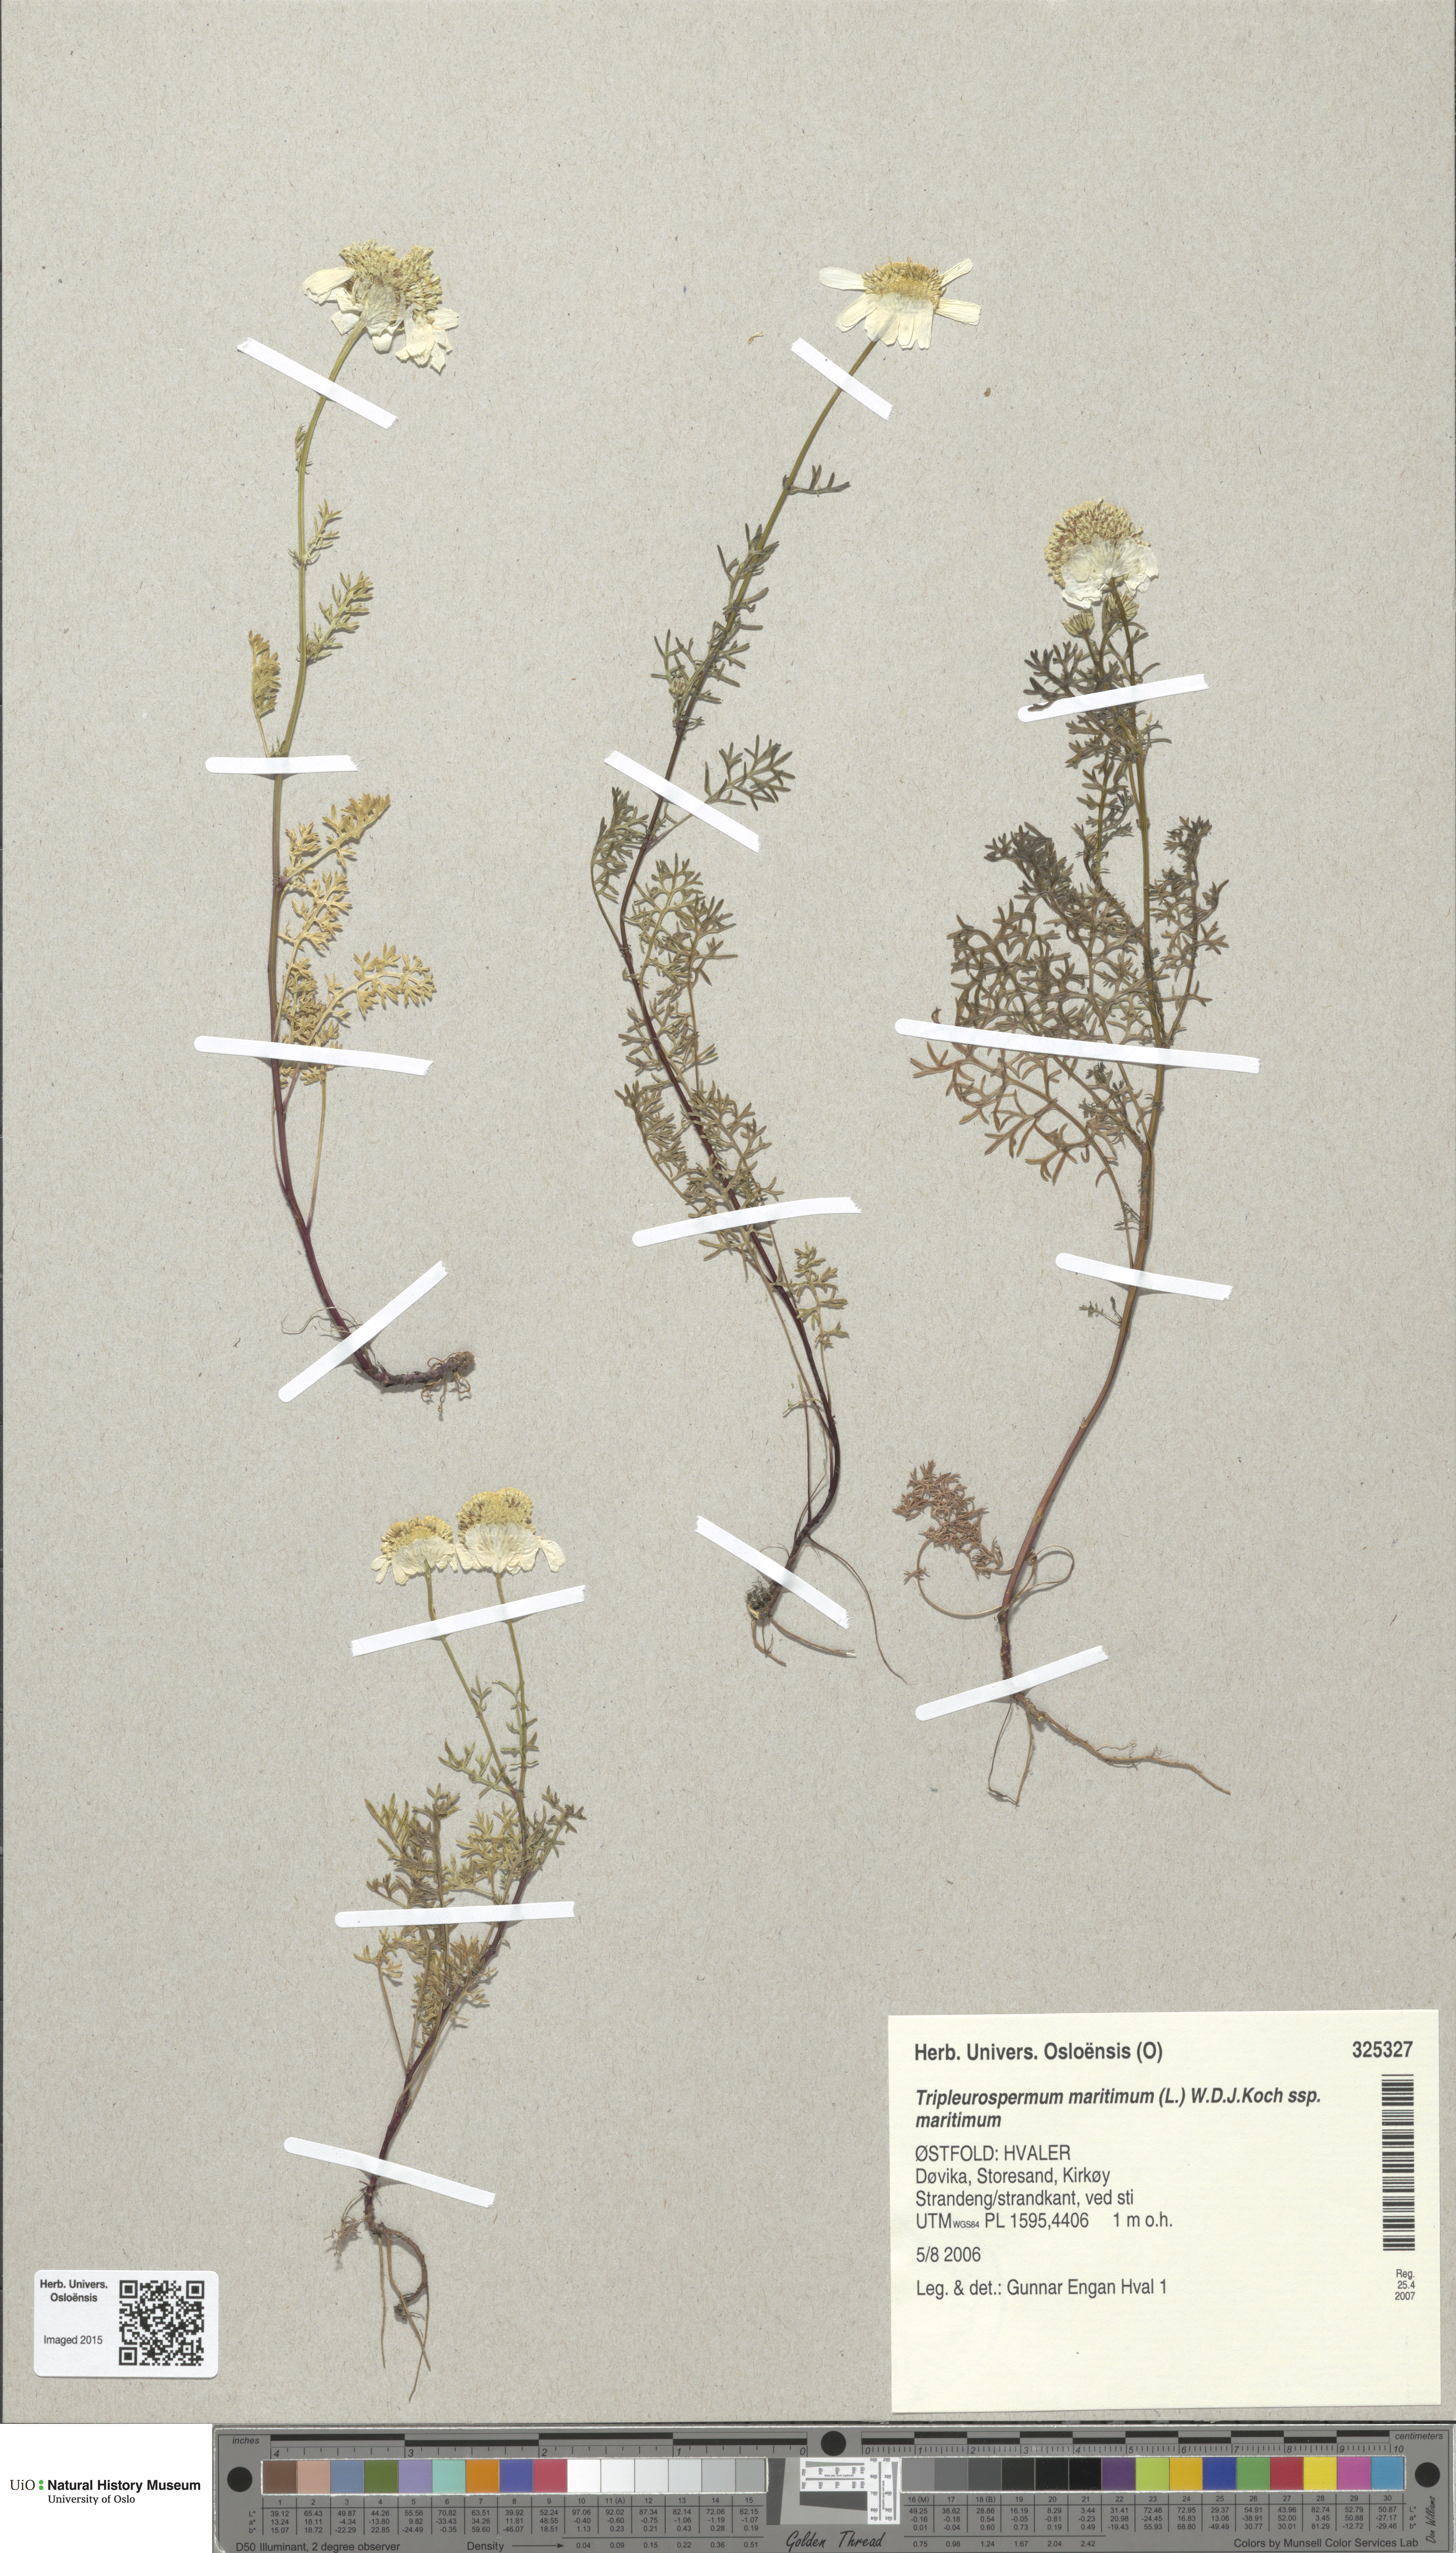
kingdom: Plantae
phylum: Tracheophyta
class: Magnoliopsida
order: Asterales
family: Asteraceae
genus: Tripleurospermum
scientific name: Tripleurospermum maritimum
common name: Sea mayweed
